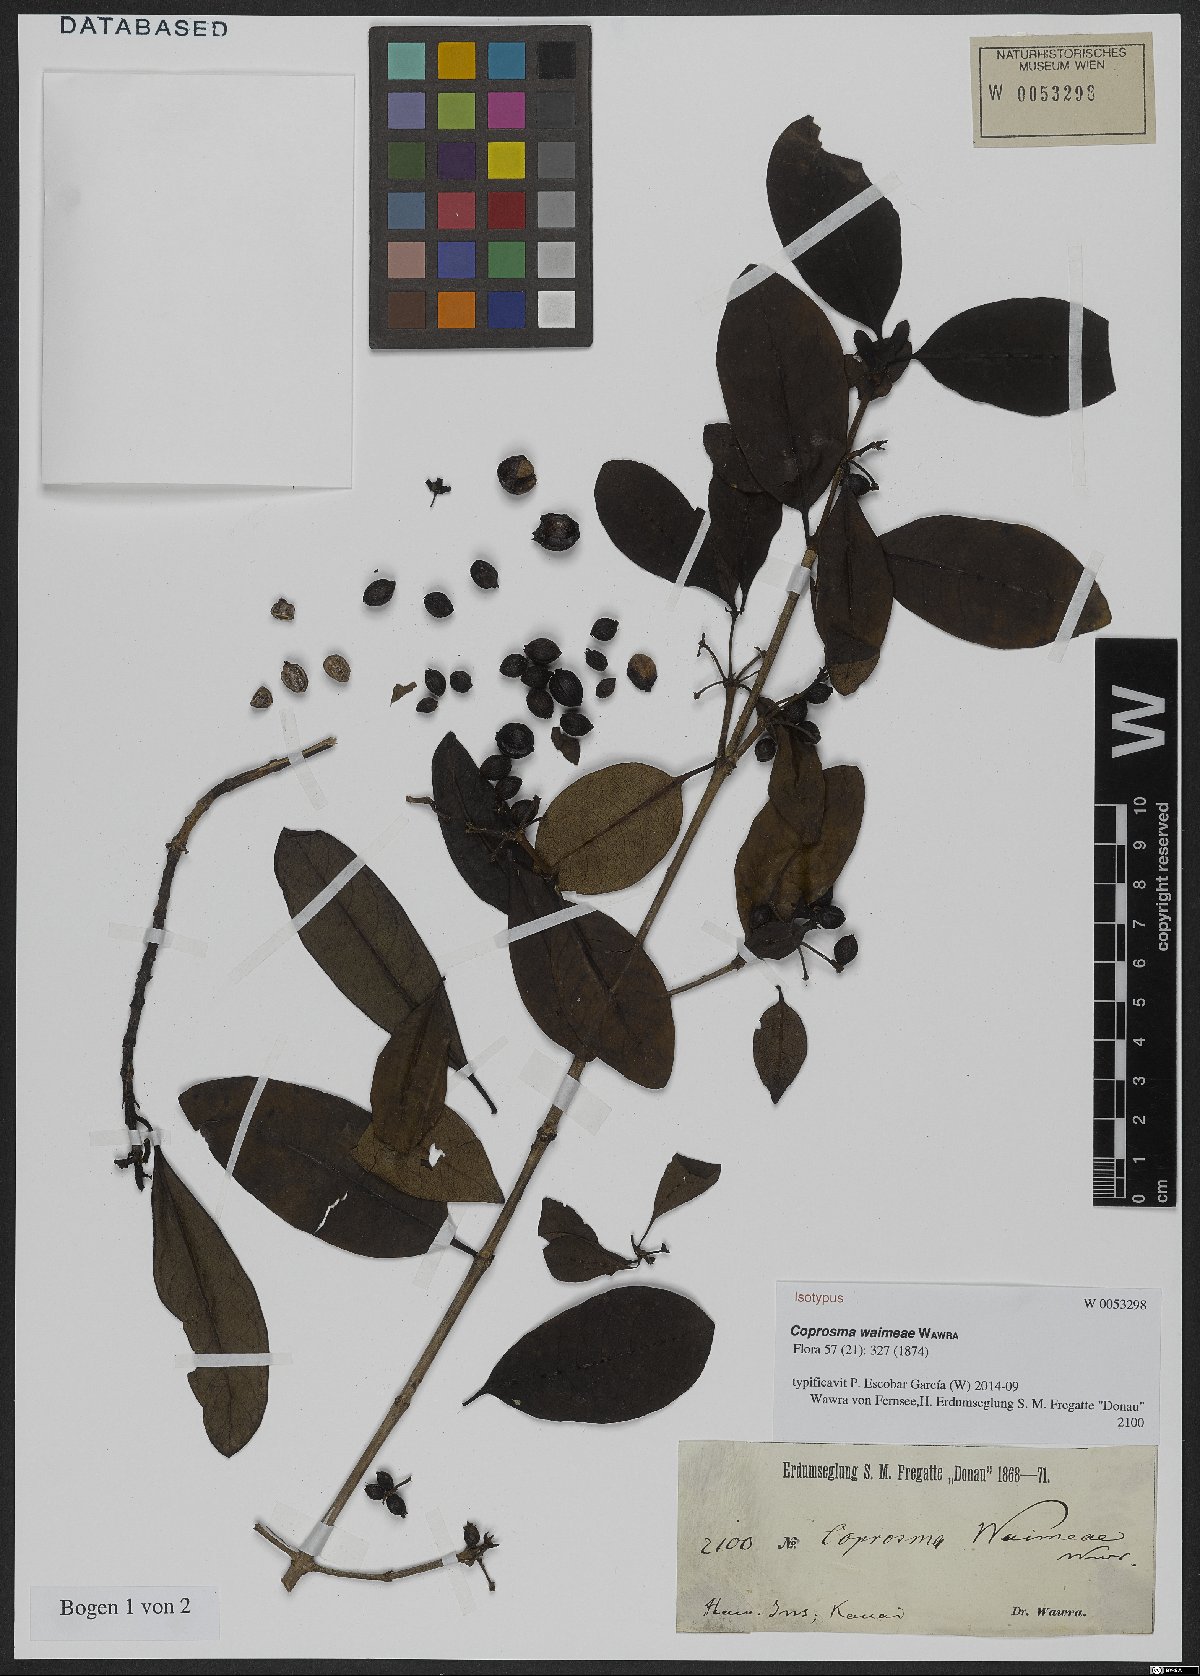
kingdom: Plantae
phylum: Tracheophyta
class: Magnoliopsida
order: Gentianales
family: Rubiaceae
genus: Coprosma
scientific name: Coprosma waimeae
